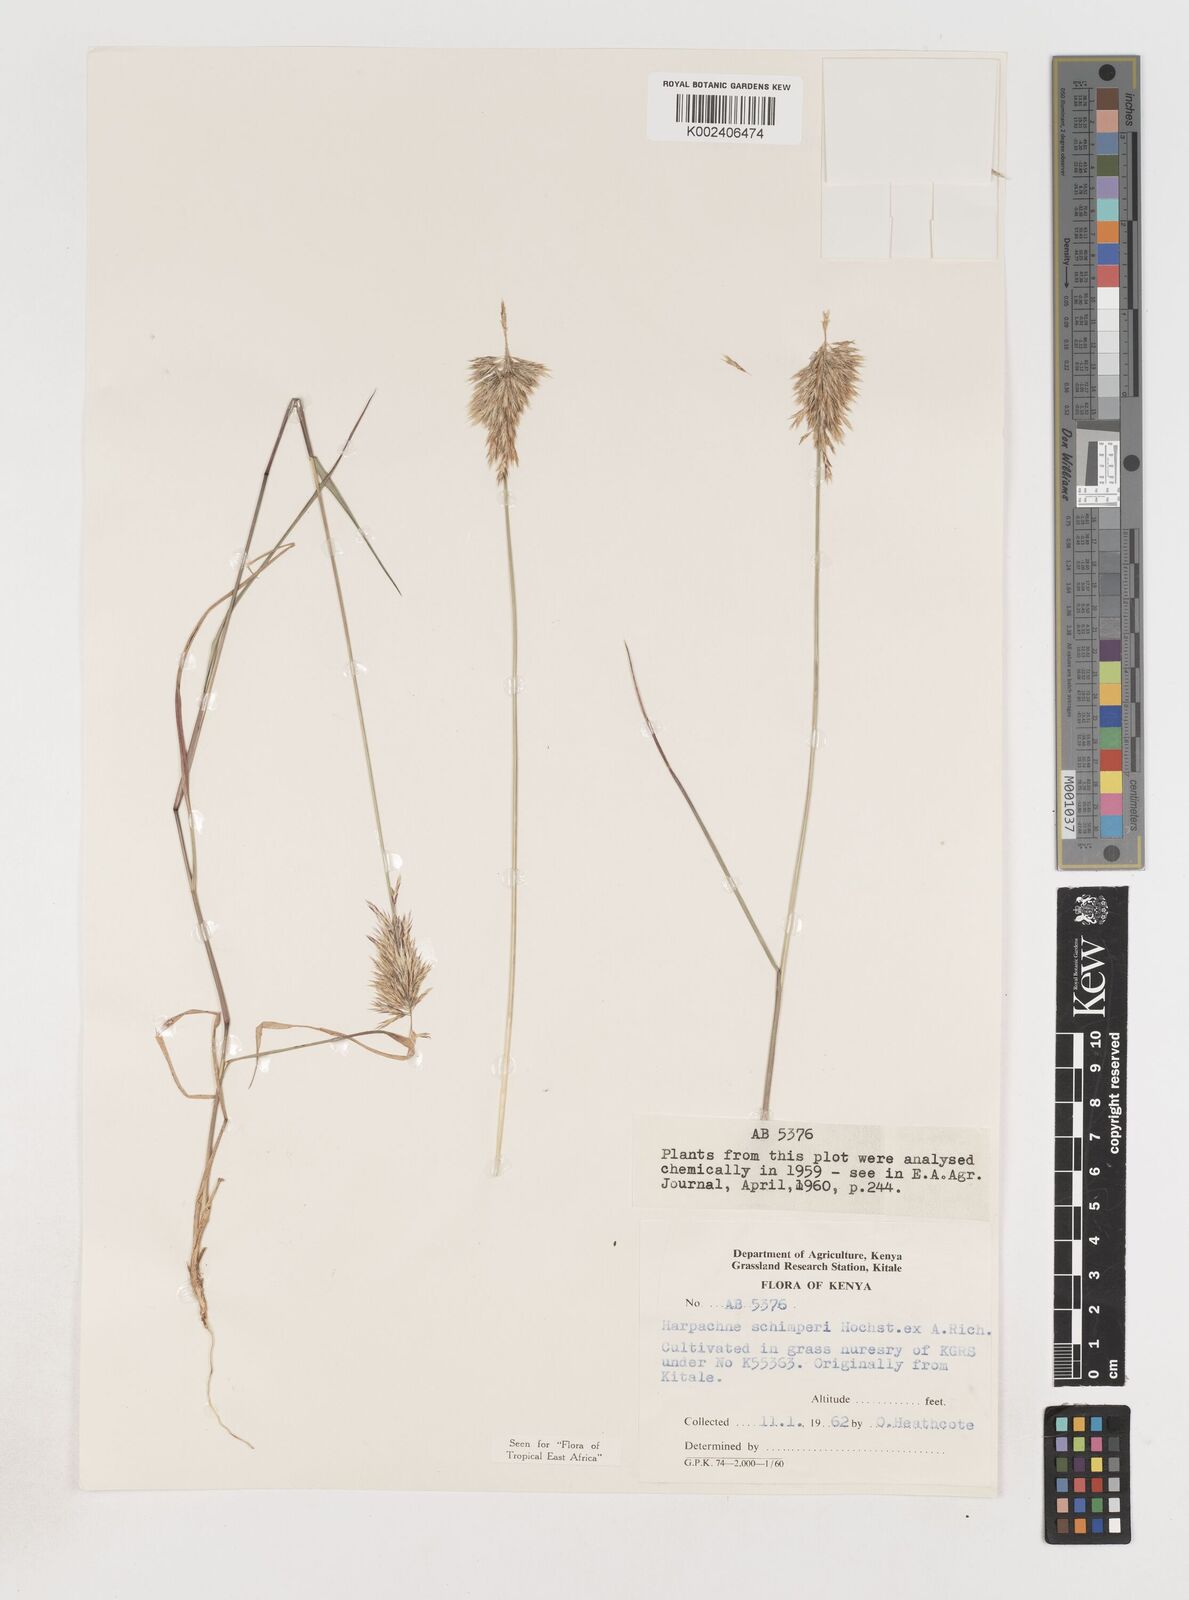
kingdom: Plantae
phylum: Tracheophyta
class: Liliopsida
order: Poales
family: Poaceae
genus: Harpachne
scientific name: Harpachne schimperi
